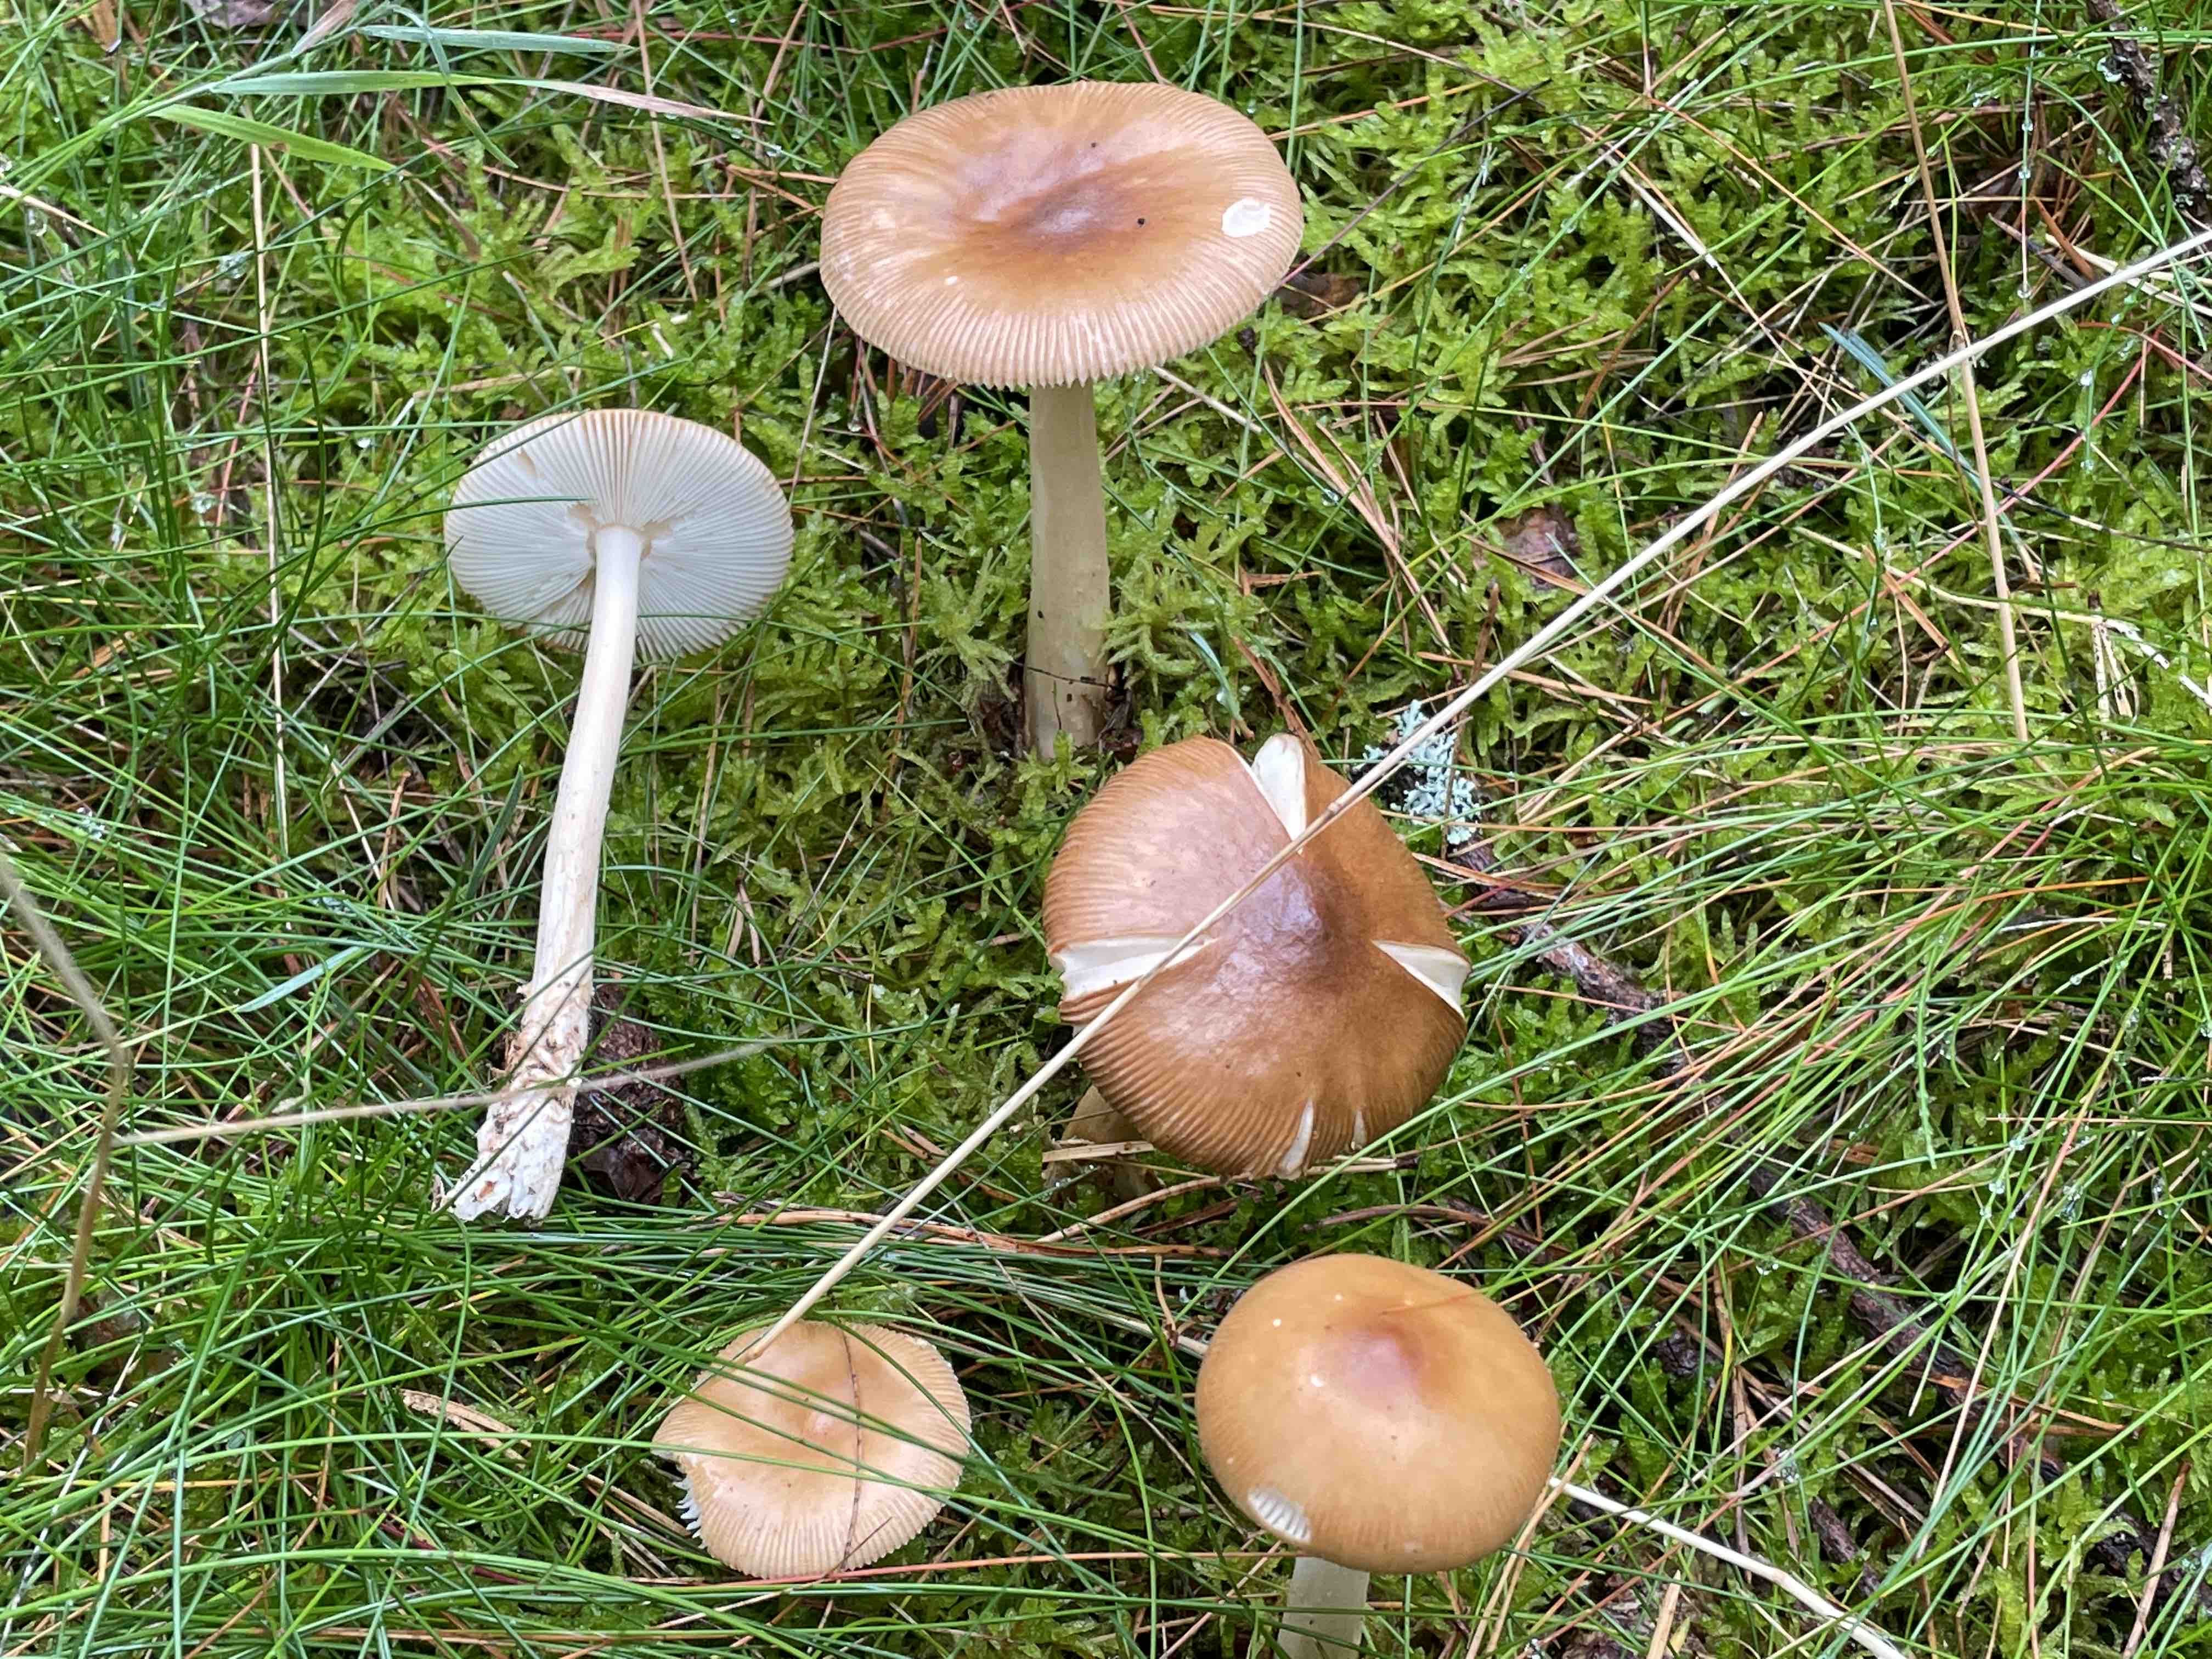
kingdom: Fungi
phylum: Basidiomycota
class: Agaricomycetes
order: Agaricales
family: Amanitaceae
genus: Amanita
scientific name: Amanita fulva
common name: brun kam-fluesvamp
